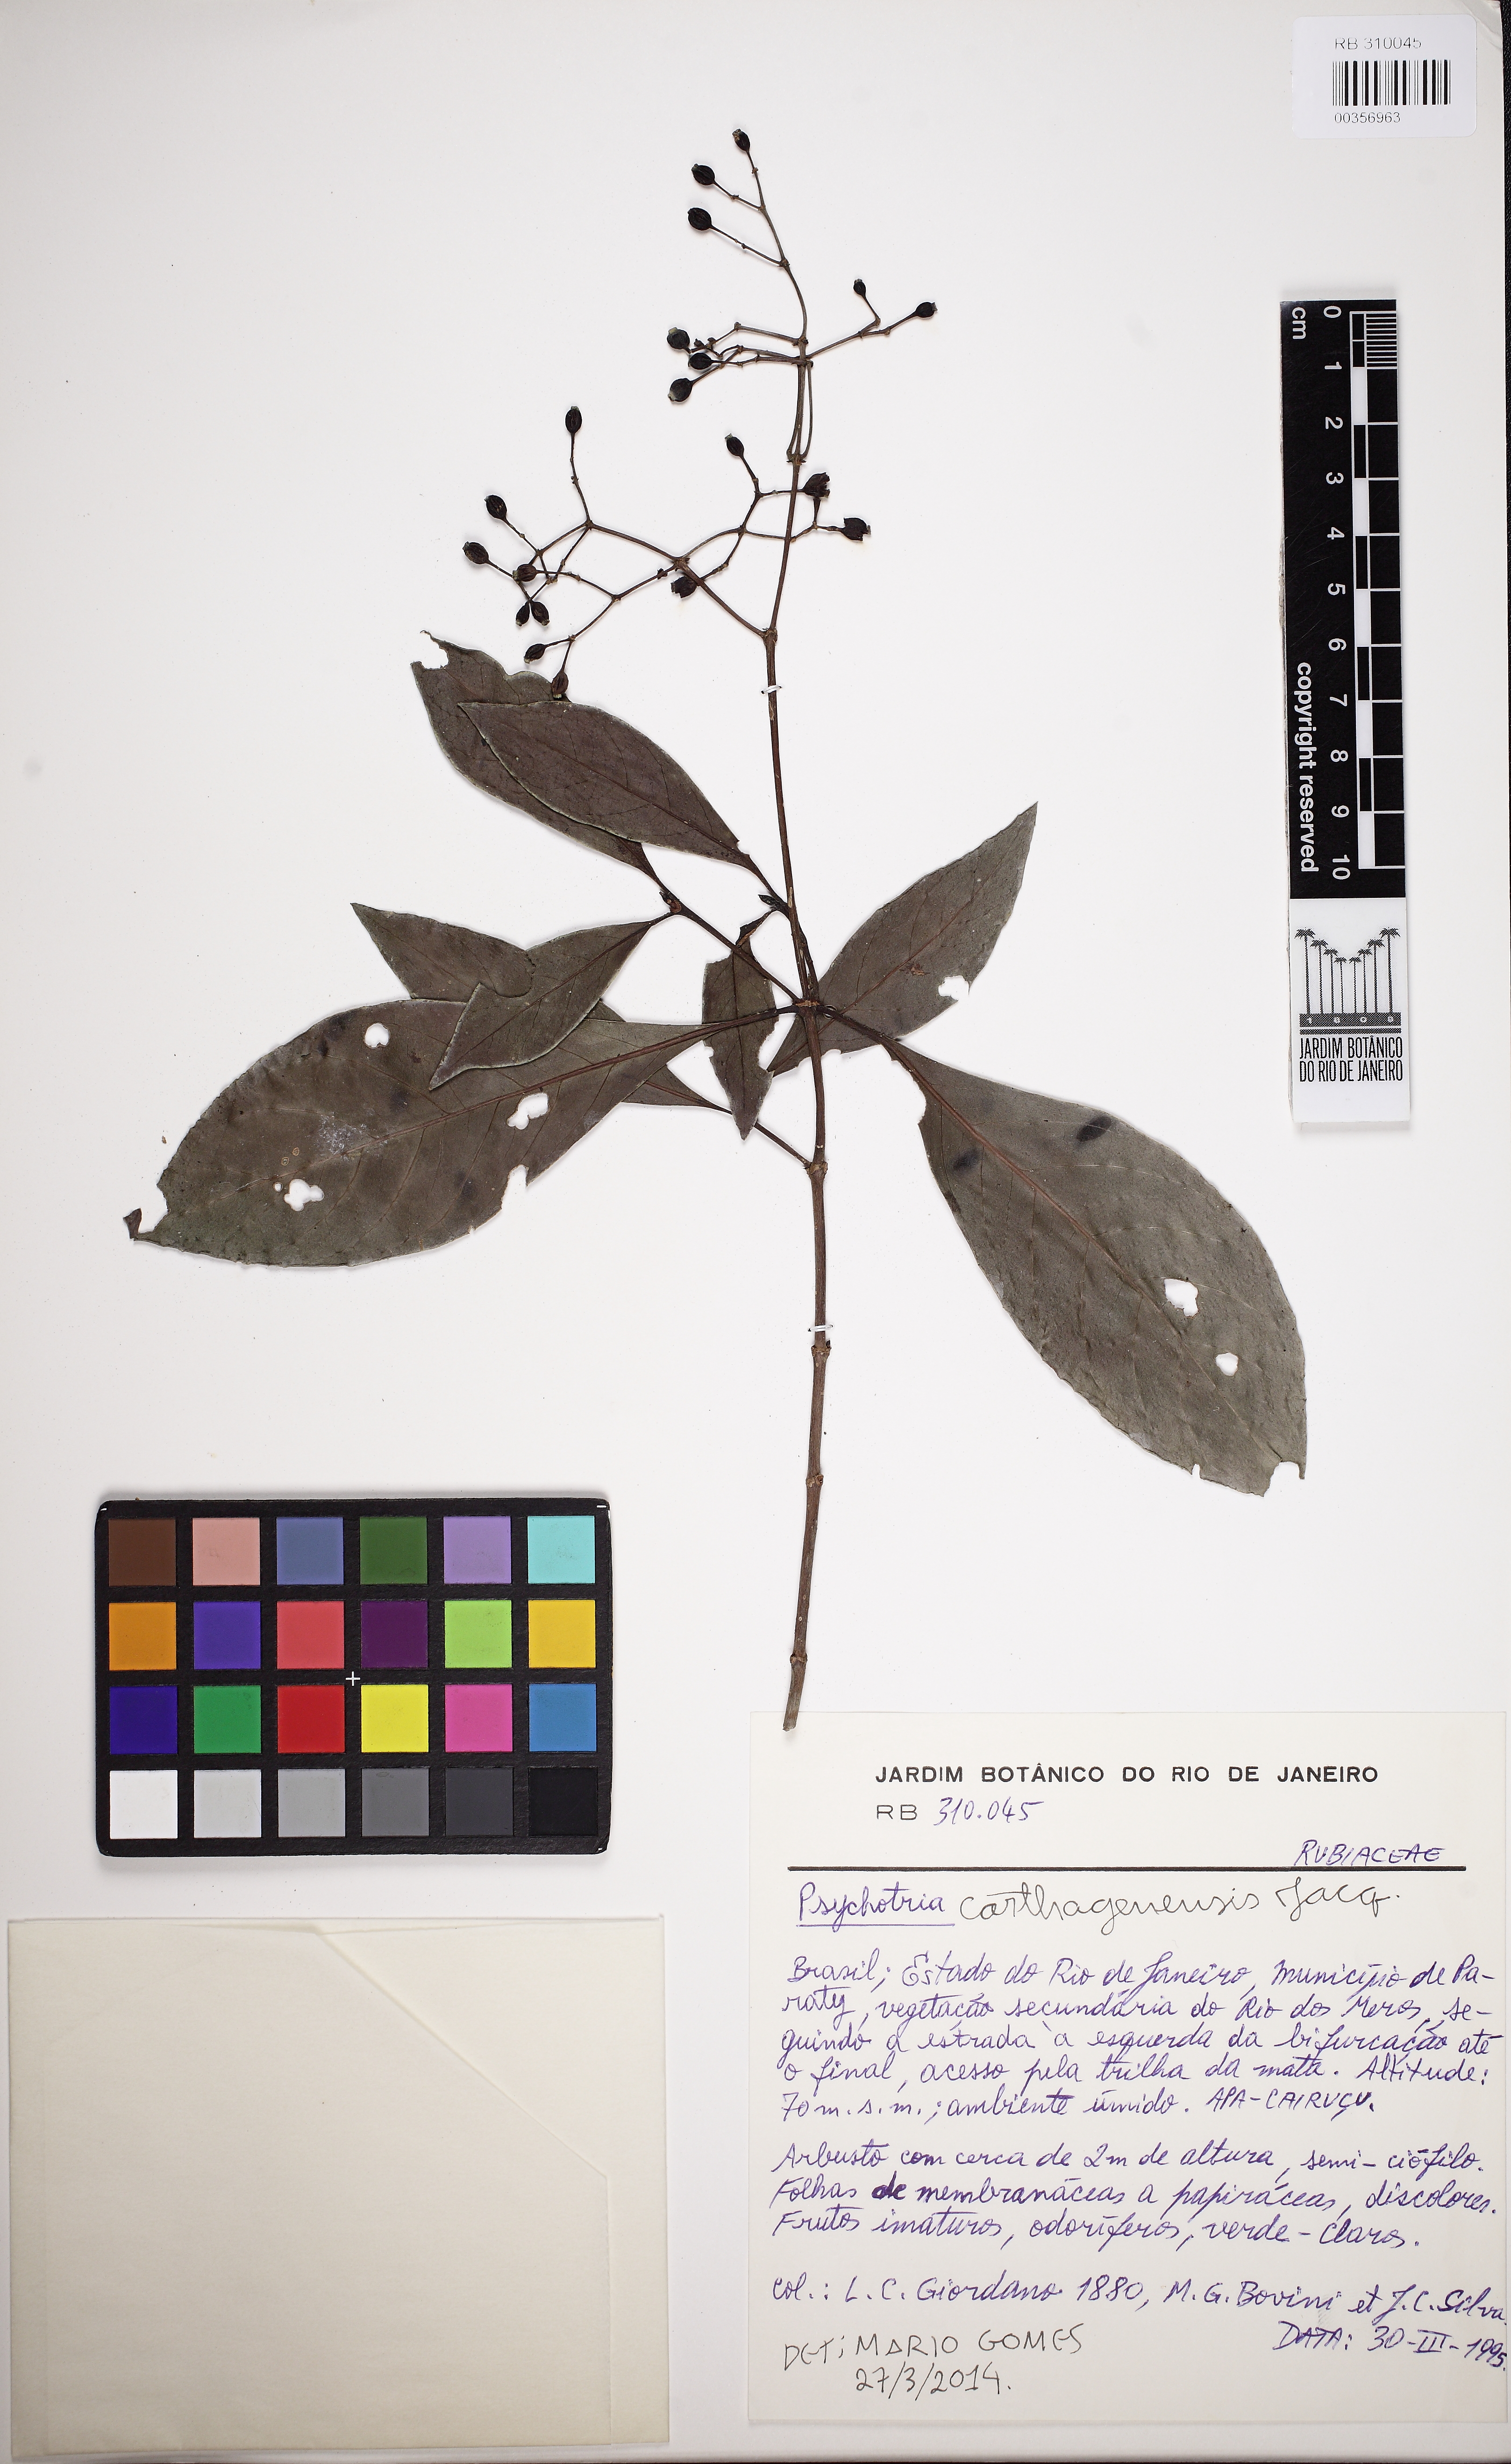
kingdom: Plantae
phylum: Tracheophyta
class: Magnoliopsida
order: Gentianales
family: Rubiaceae
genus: Psychotria
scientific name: Psychotria marginata
